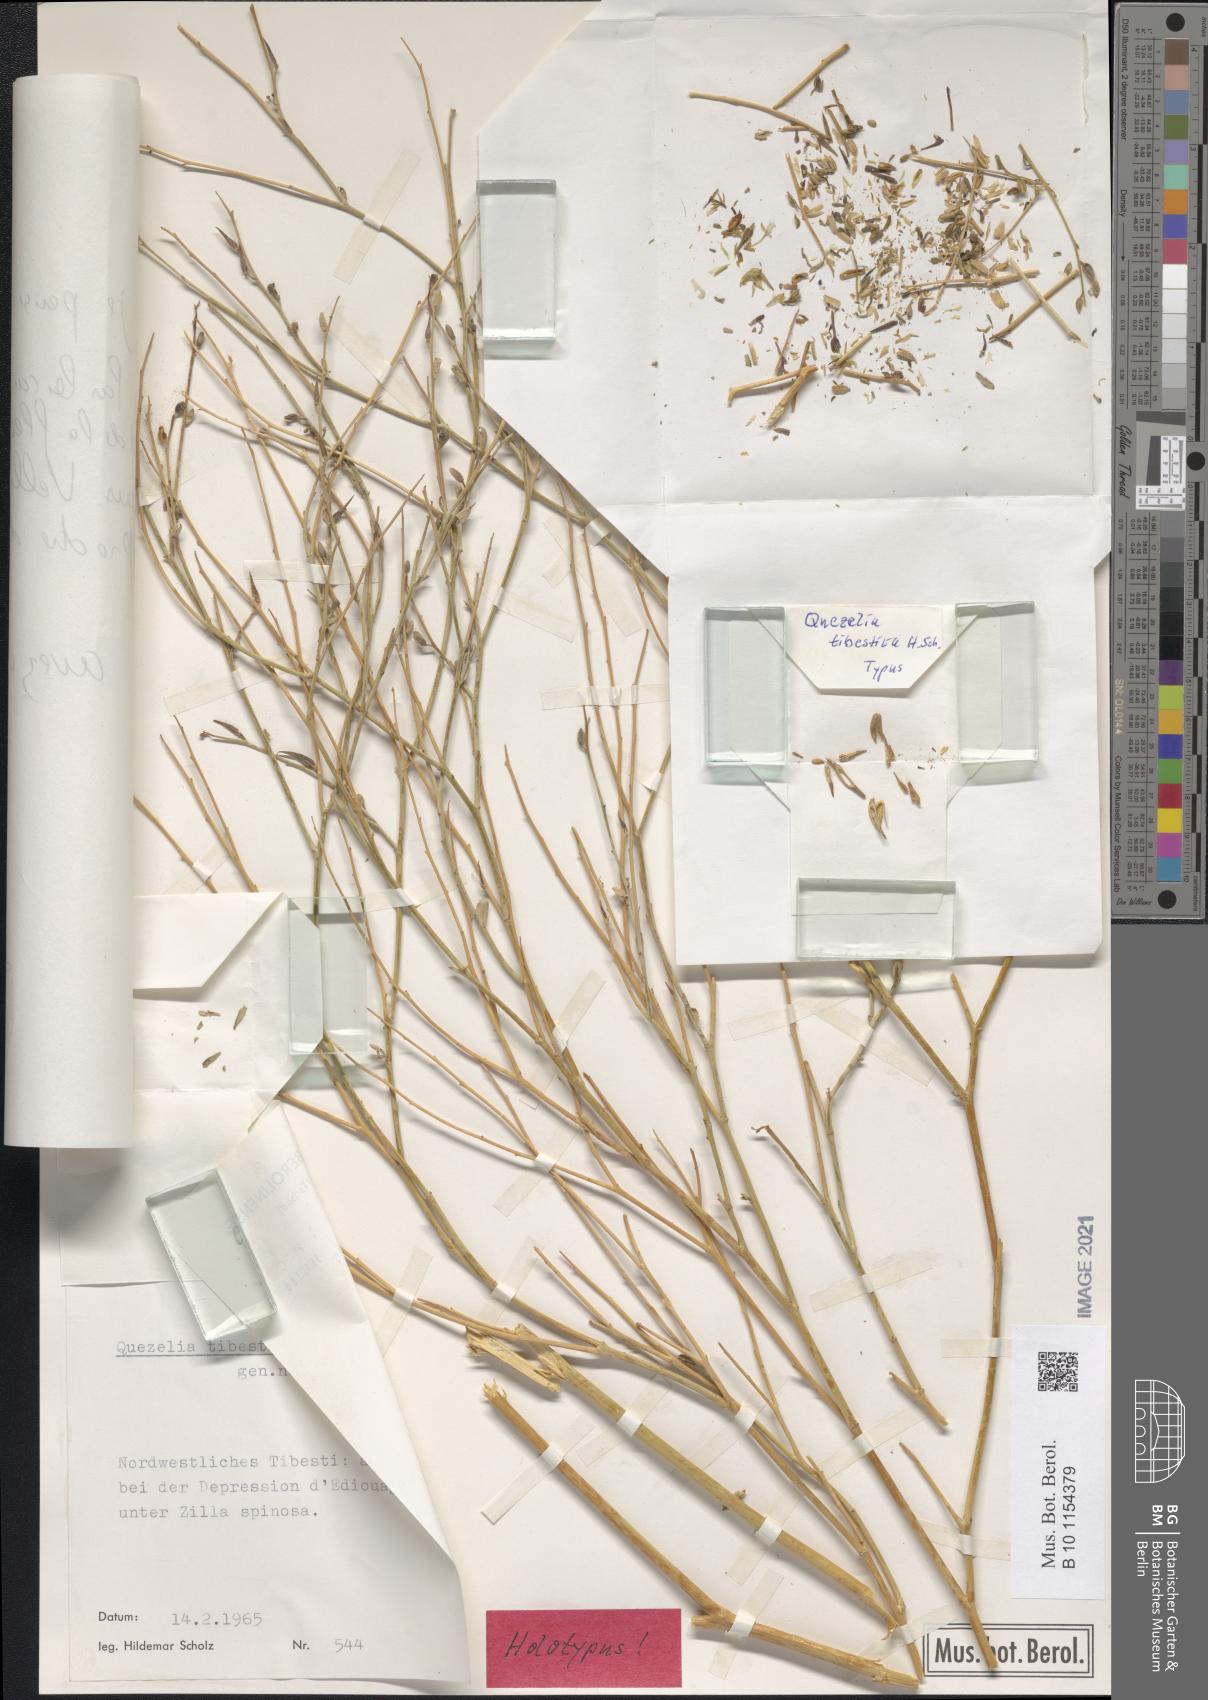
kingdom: Plantae
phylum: Tracheophyta
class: Magnoliopsida
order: Brassicales
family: Brassicaceae
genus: Quezeliantha
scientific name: Quezeliantha tibestica
